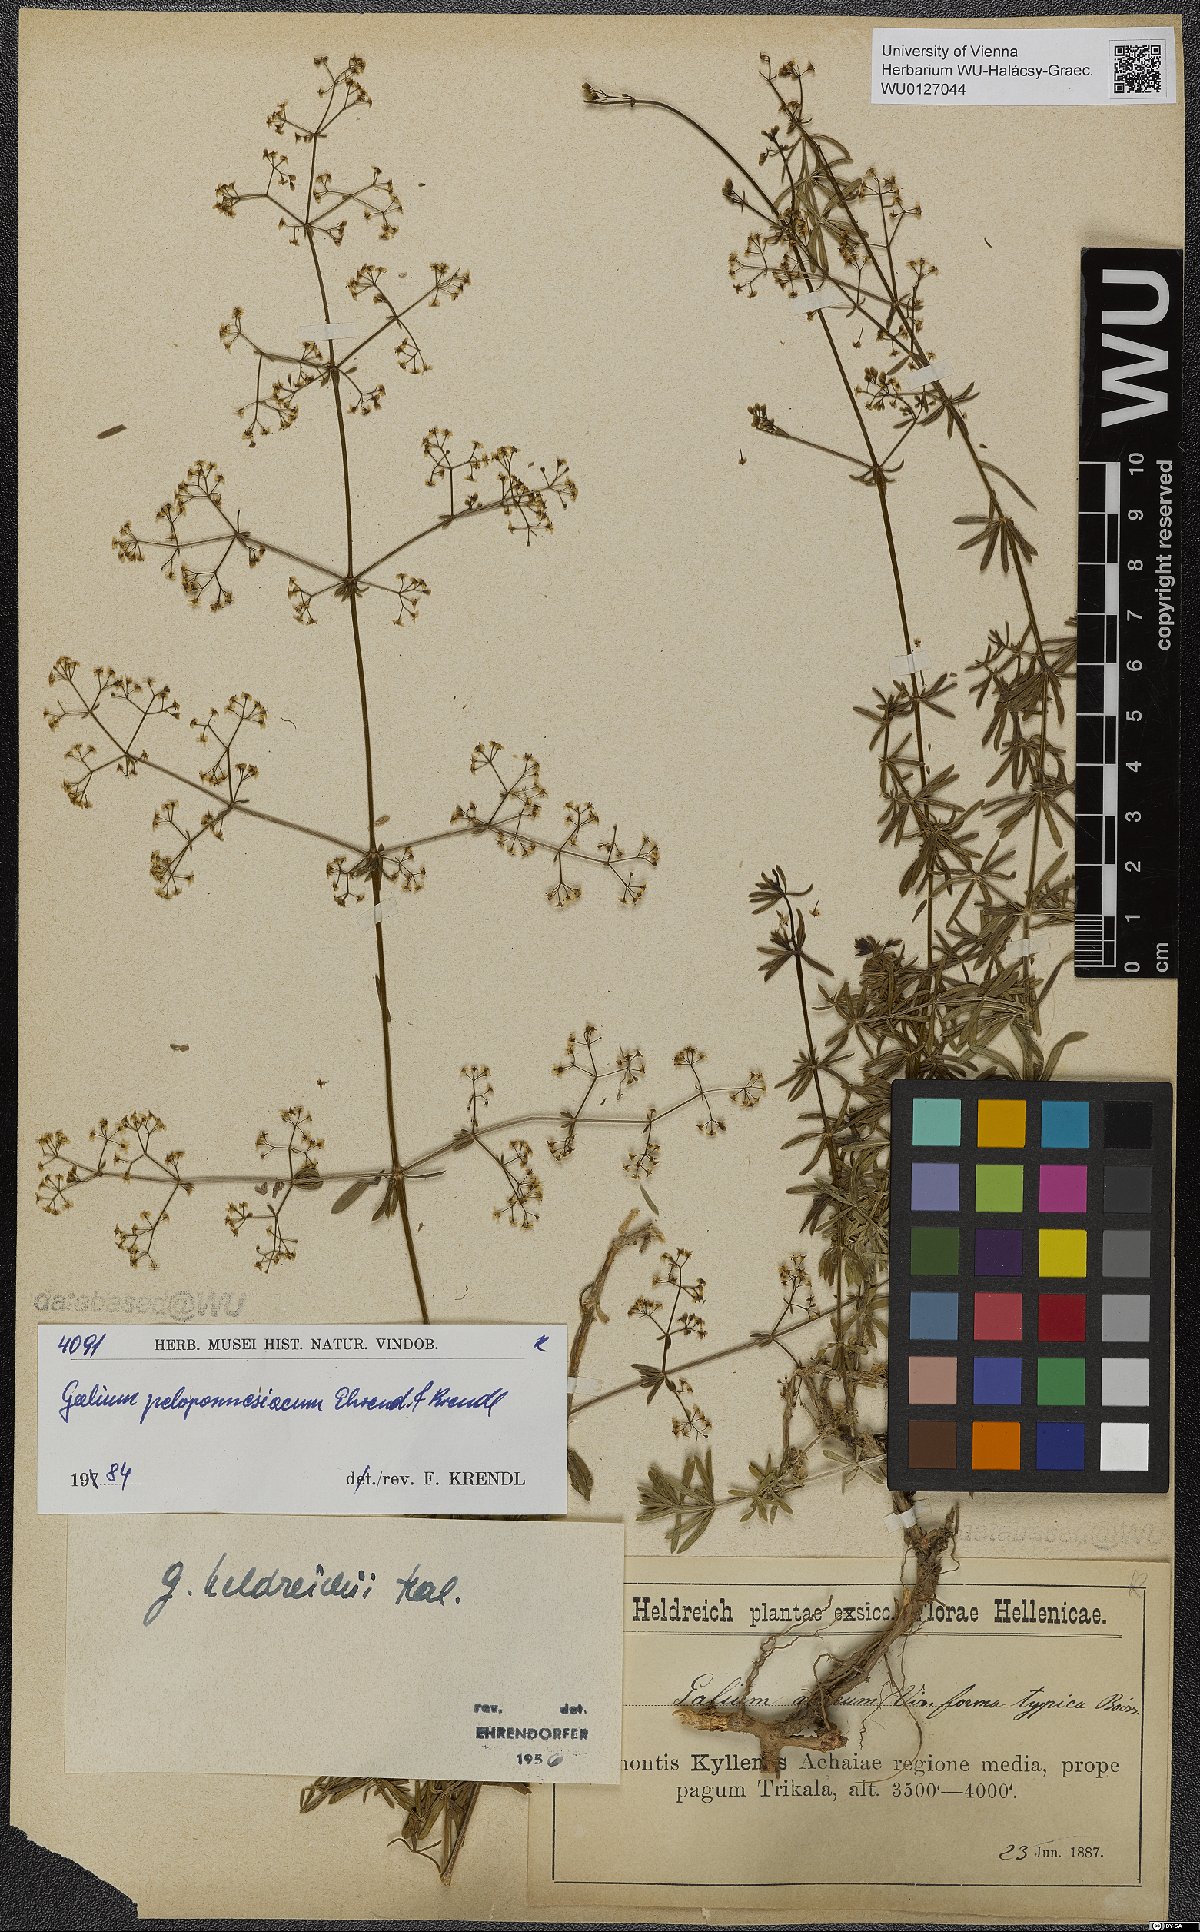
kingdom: Plantae
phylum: Tracheophyta
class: Magnoliopsida
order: Gentianales
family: Rubiaceae
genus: Galium
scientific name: Galium peloponnesiacum
